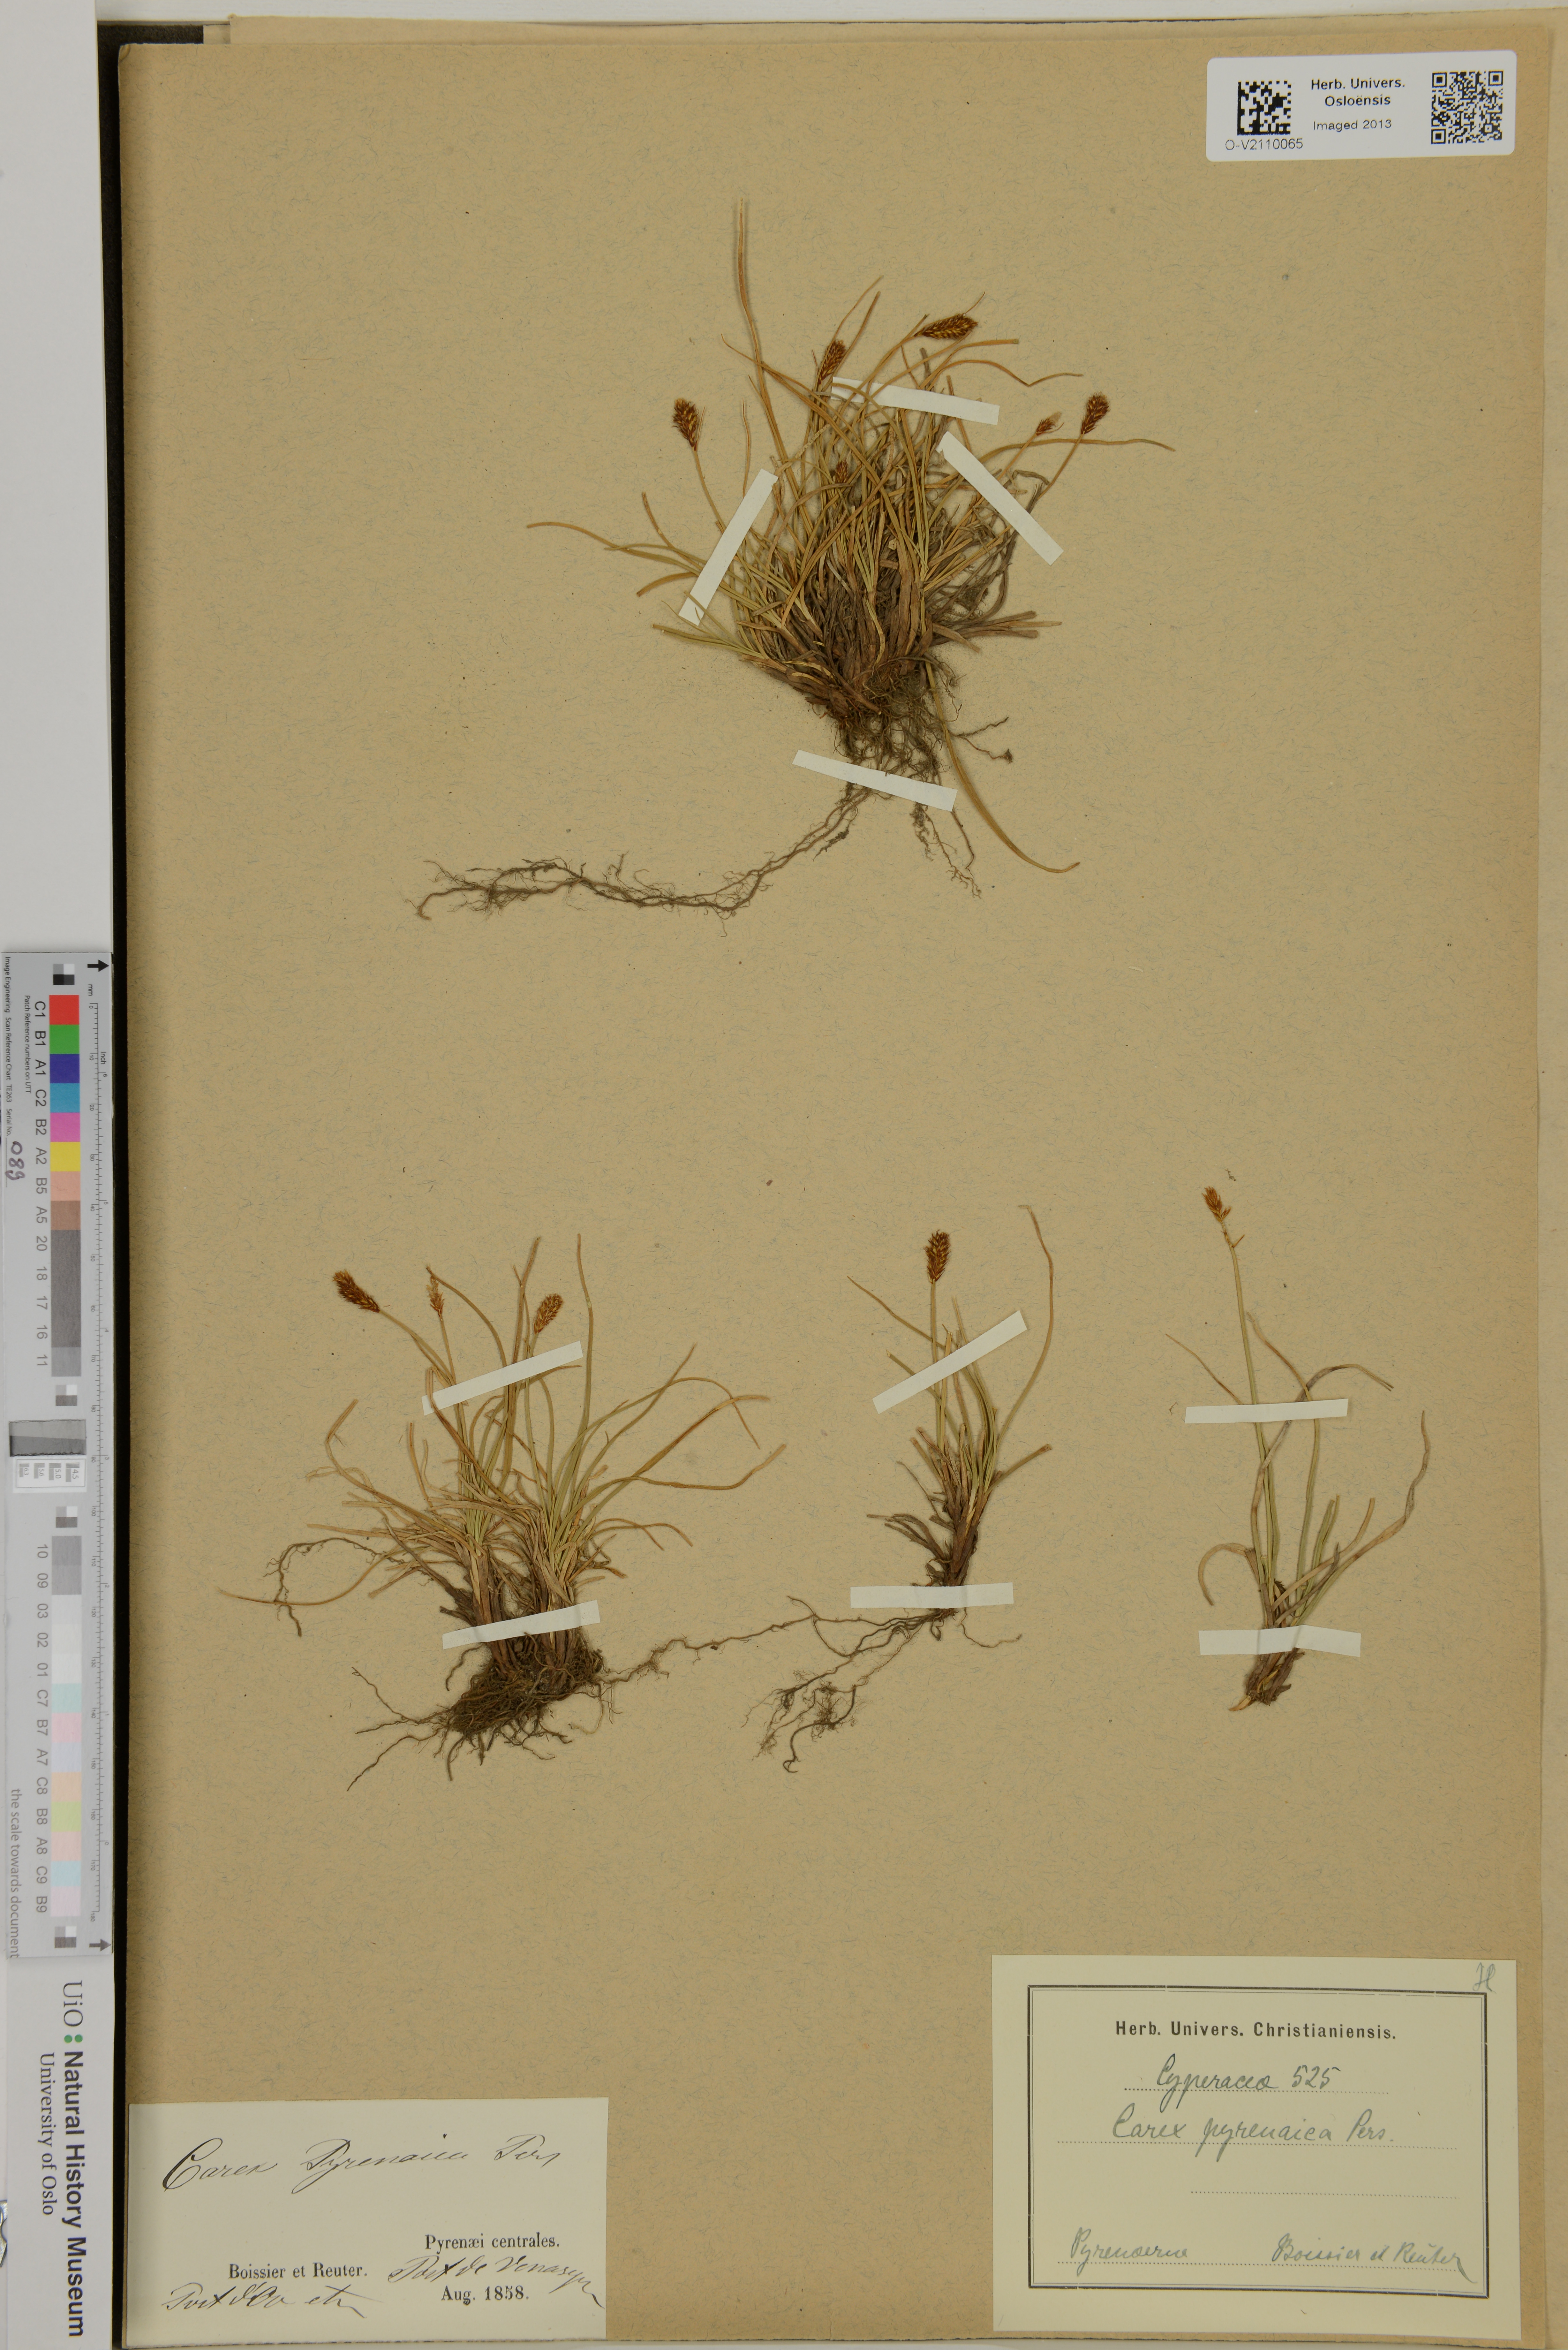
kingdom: Plantae
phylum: Tracheophyta
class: Liliopsida
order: Poales
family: Cyperaceae
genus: Carex
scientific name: Carex pyrenaica
